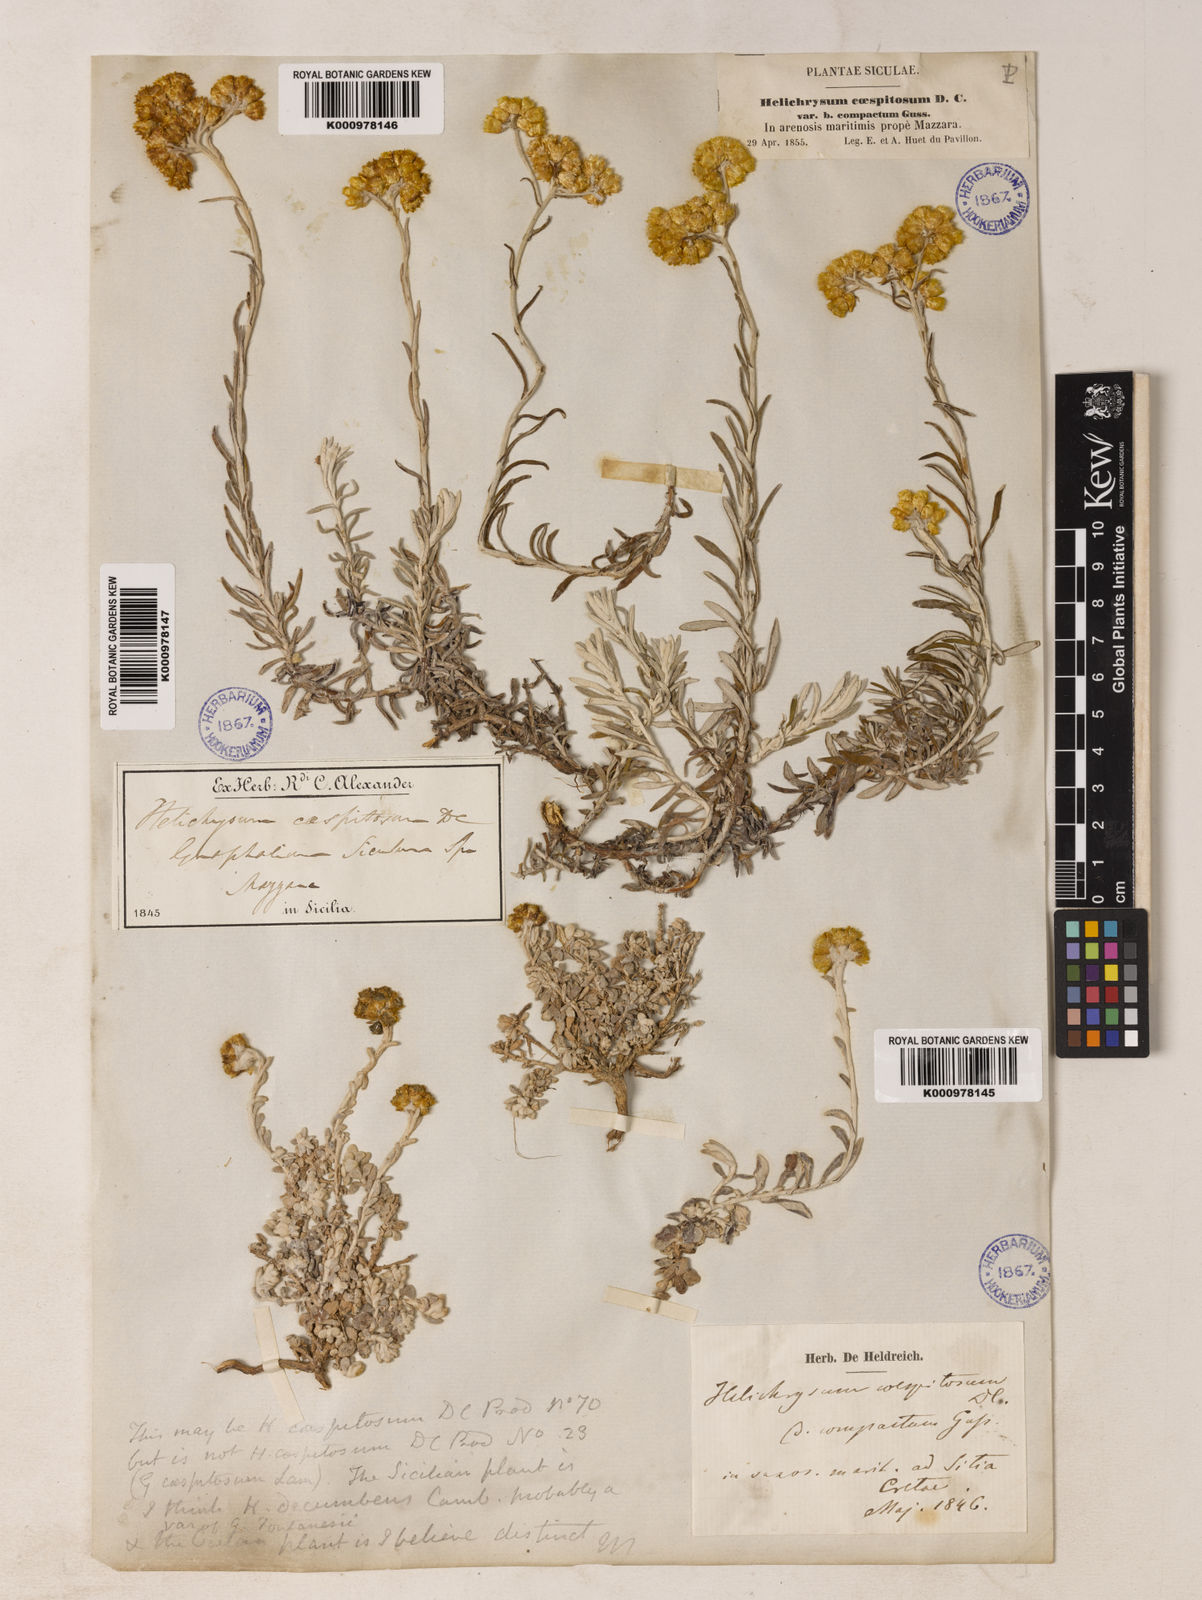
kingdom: Plantae
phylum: Tracheophyta
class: Magnoliopsida
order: Asterales
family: Asteraceae
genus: Helichrysum
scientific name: Helichrysum
